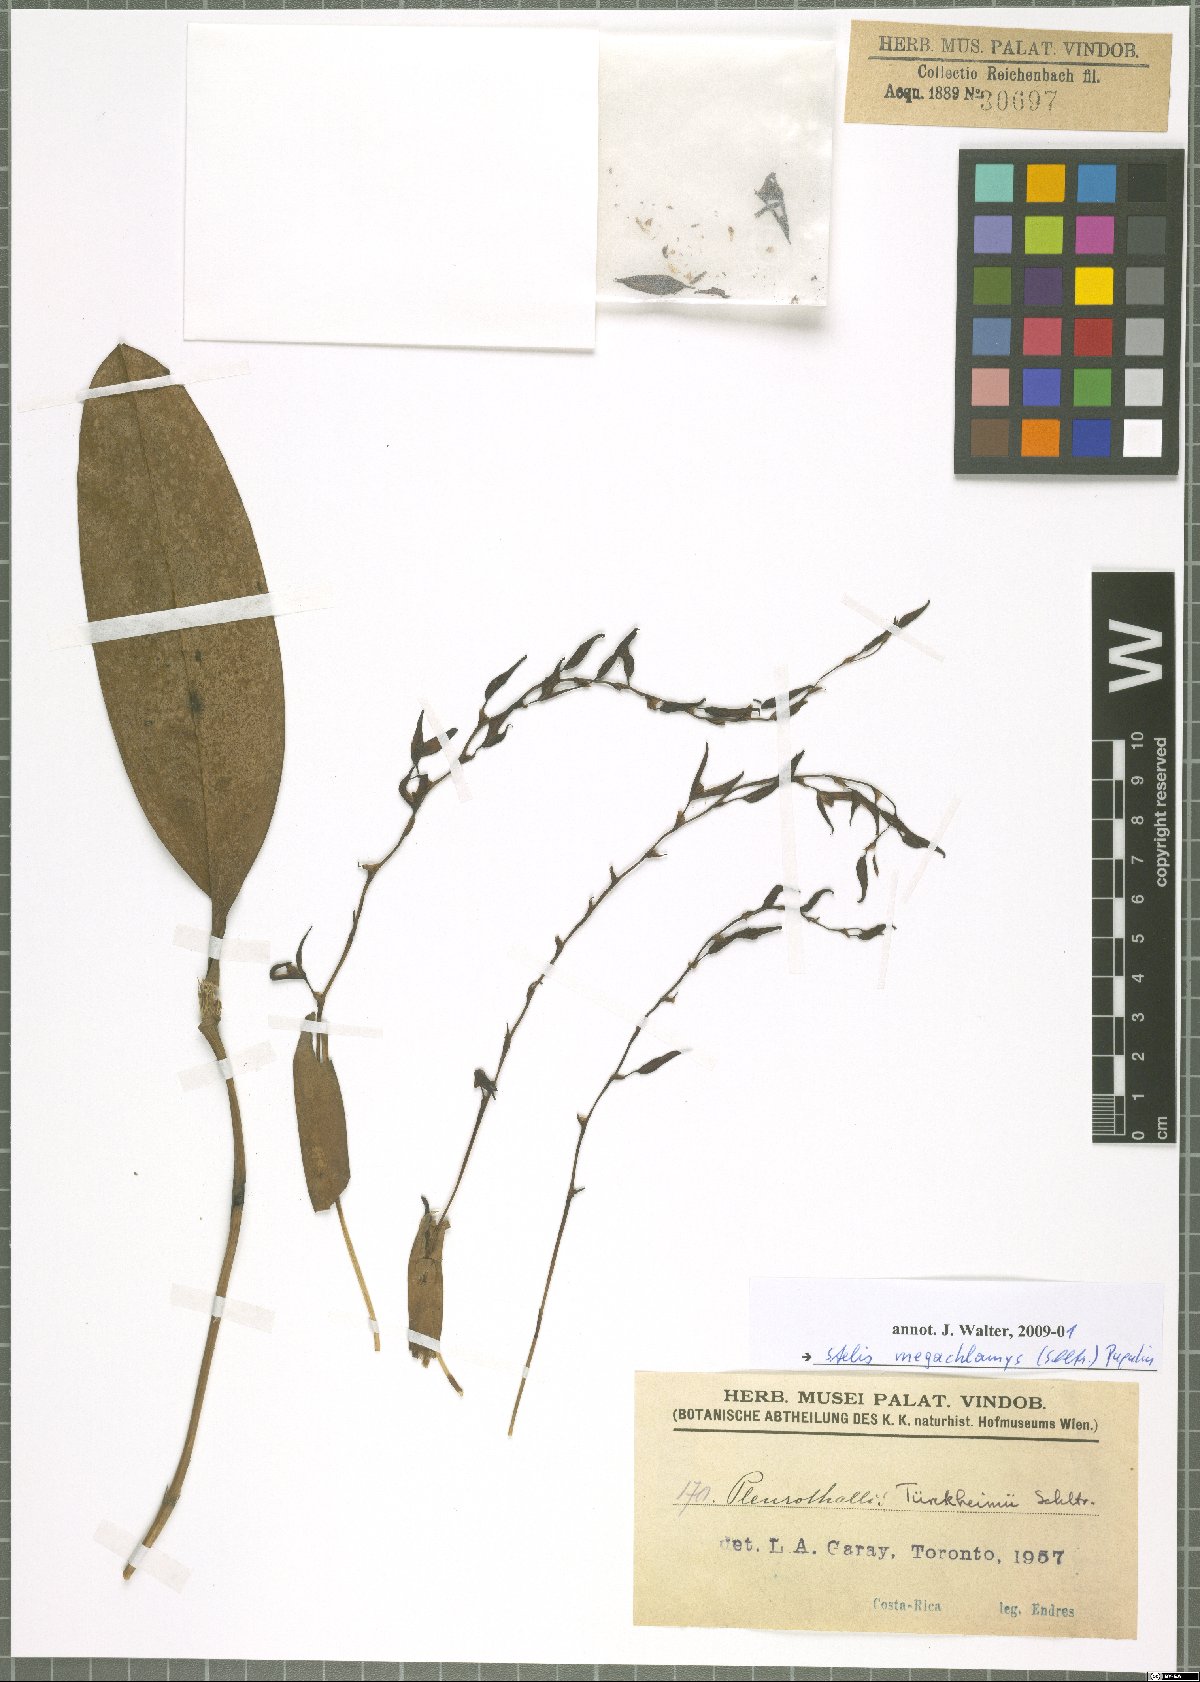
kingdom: Plantae
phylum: Tracheophyta
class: Liliopsida
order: Asparagales
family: Orchidaceae
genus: Stelis
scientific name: Stelis megachlamys
